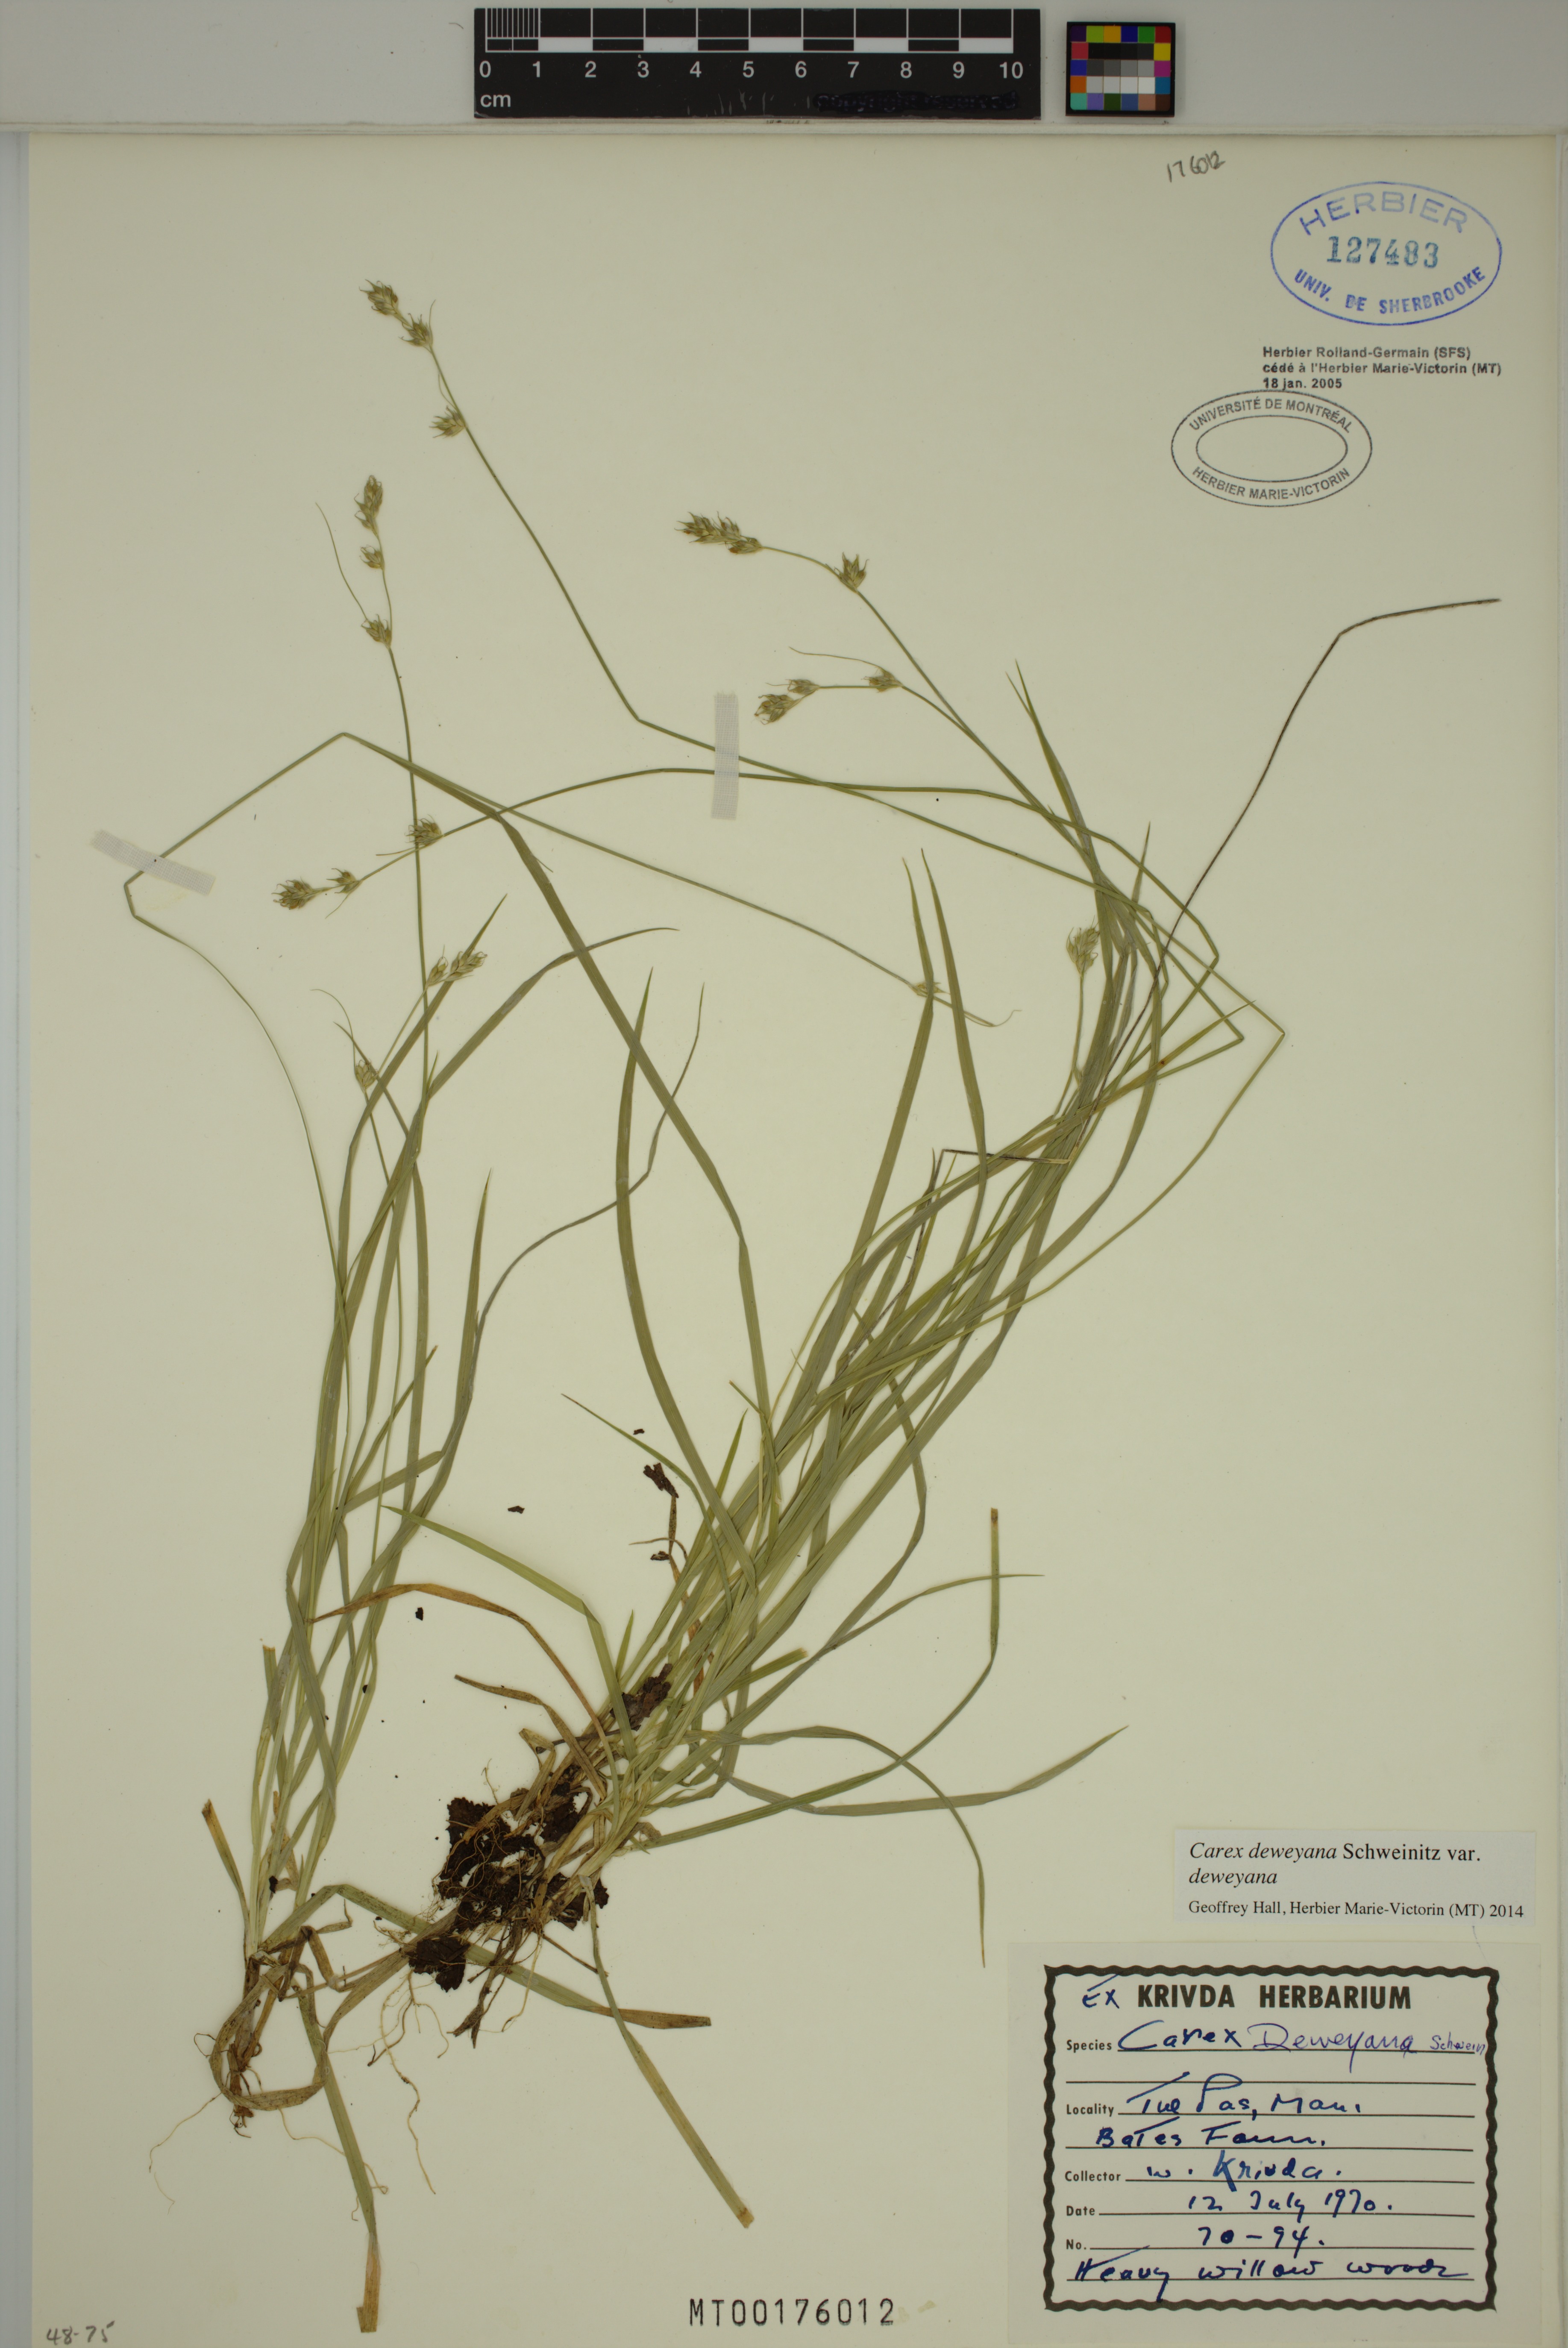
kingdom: Plantae
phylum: Tracheophyta
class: Liliopsida
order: Poales
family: Cyperaceae
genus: Carex
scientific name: Carex deweyana
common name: Dewey's sedge
